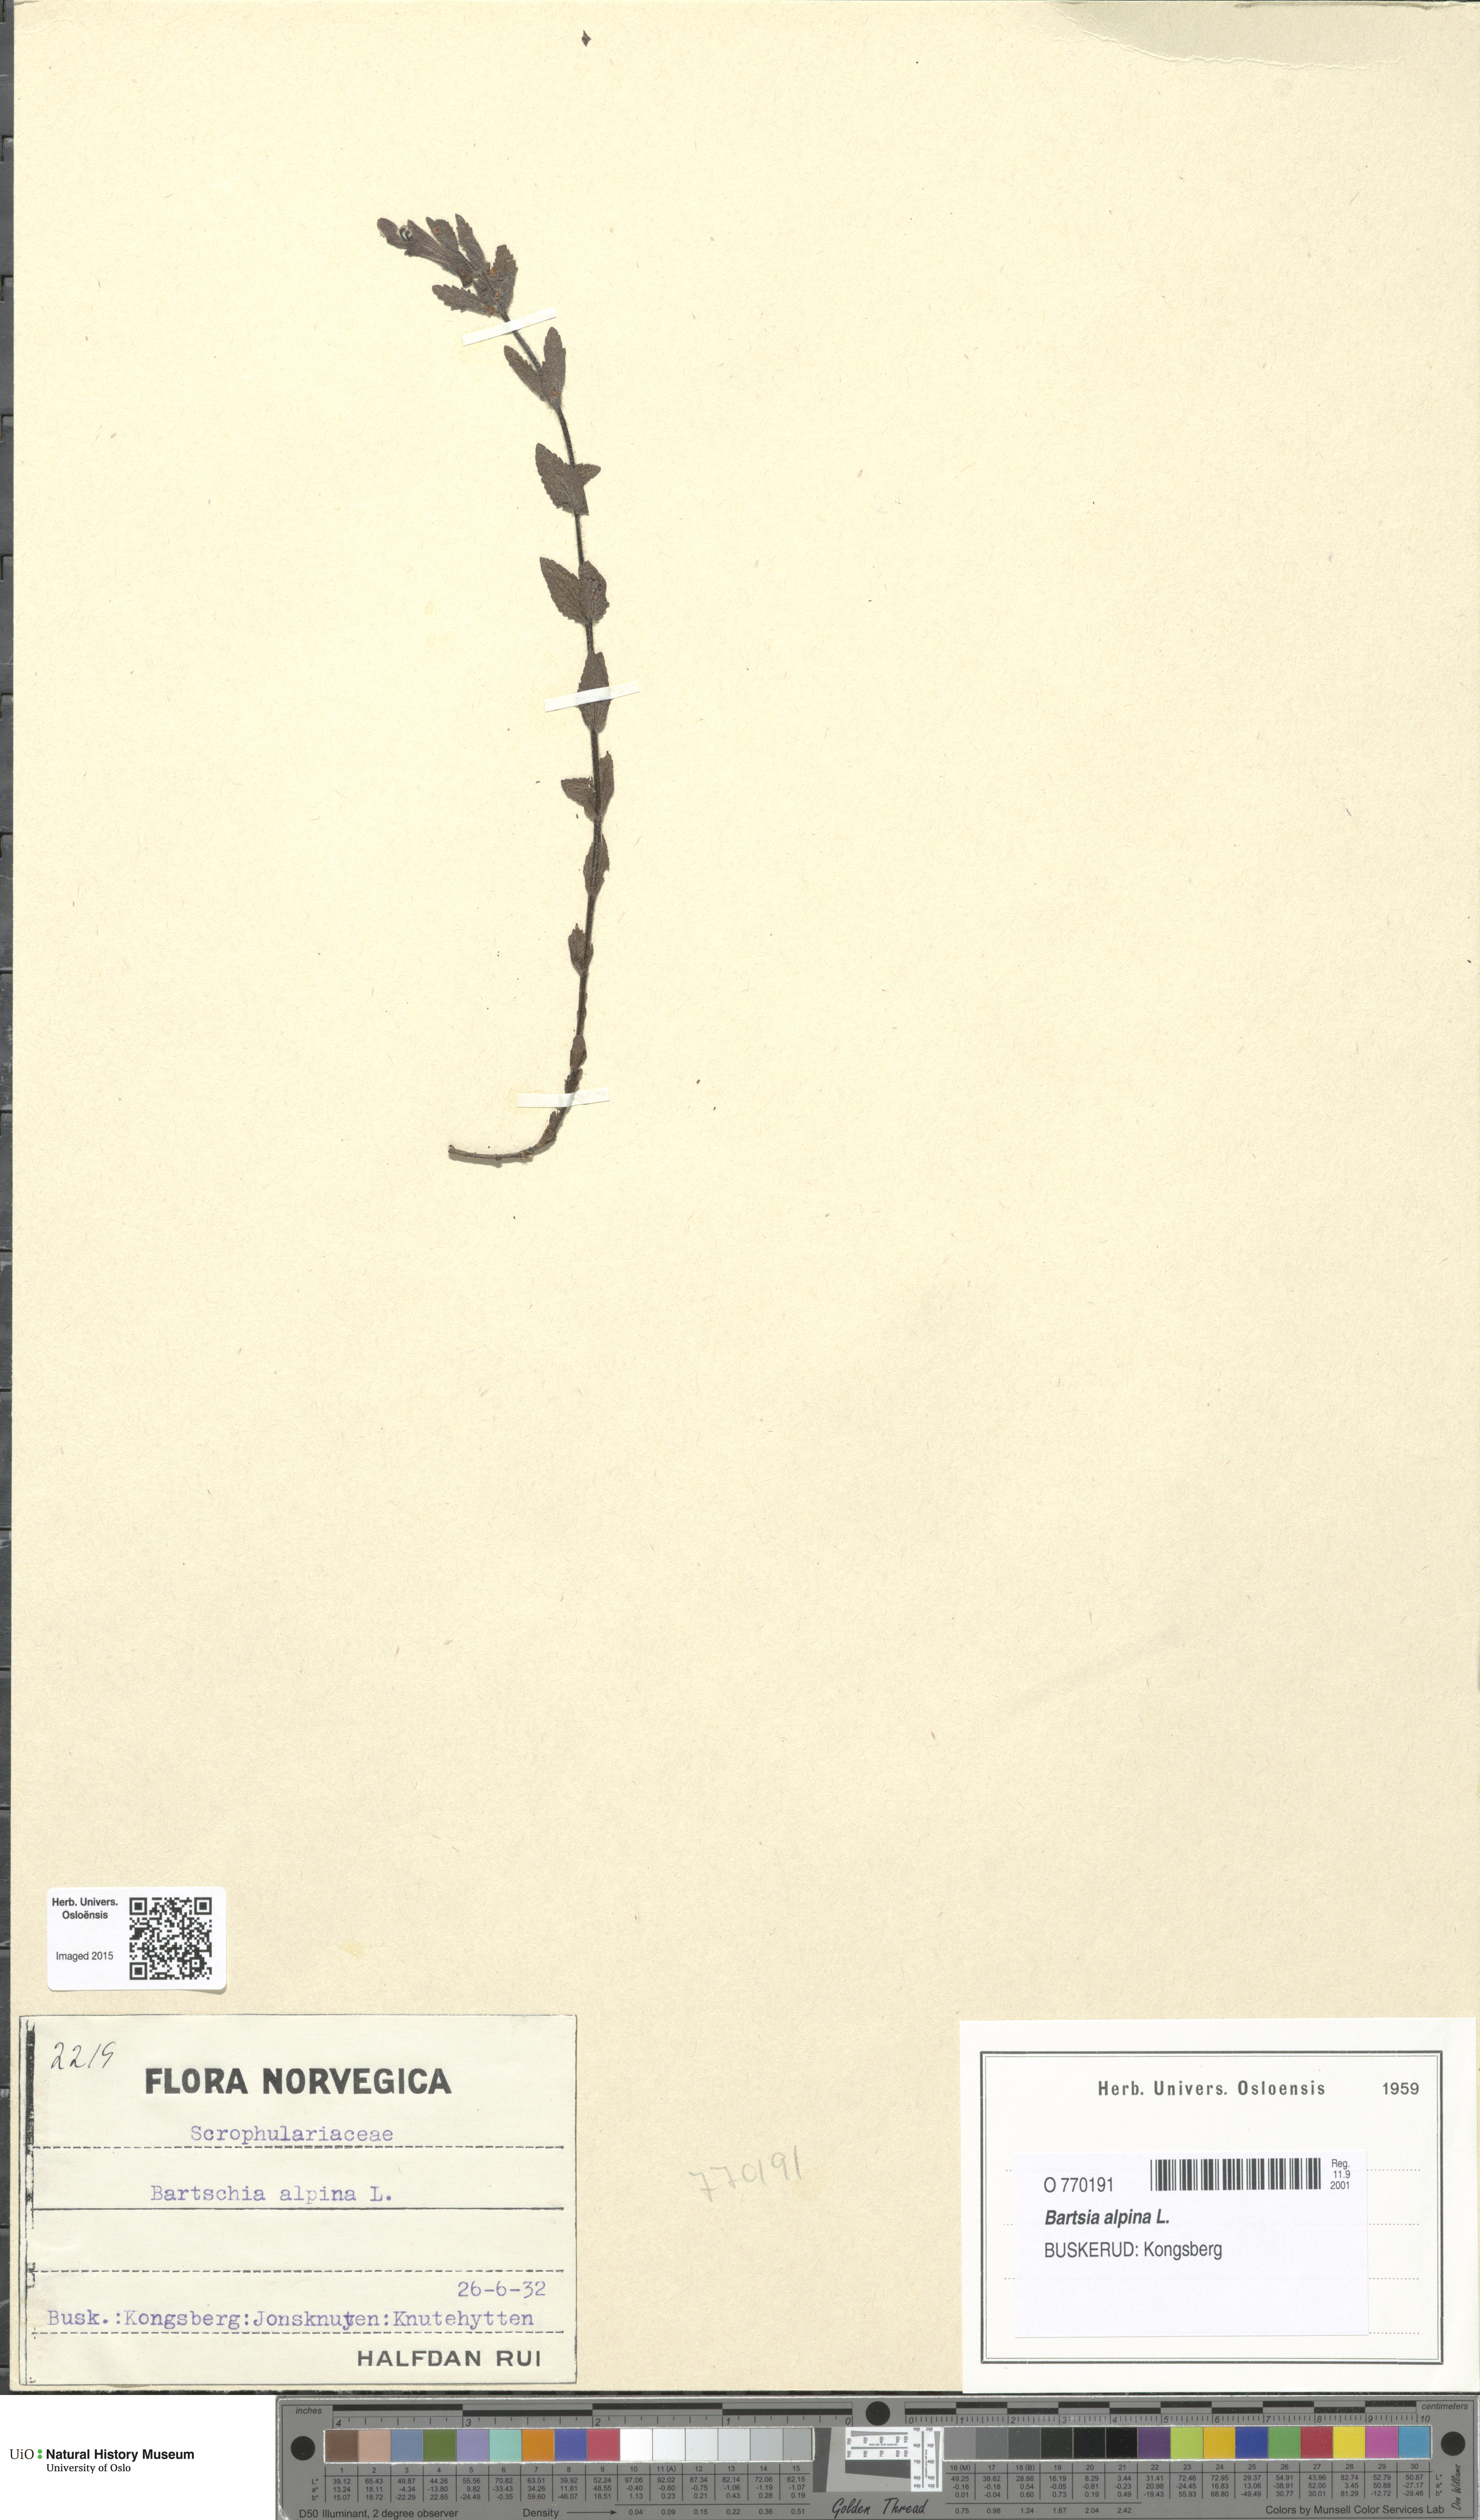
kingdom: Plantae
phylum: Tracheophyta
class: Magnoliopsida
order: Lamiales
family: Orobanchaceae
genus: Bartsia
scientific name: Bartsia alpina
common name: Alpine bartsia
